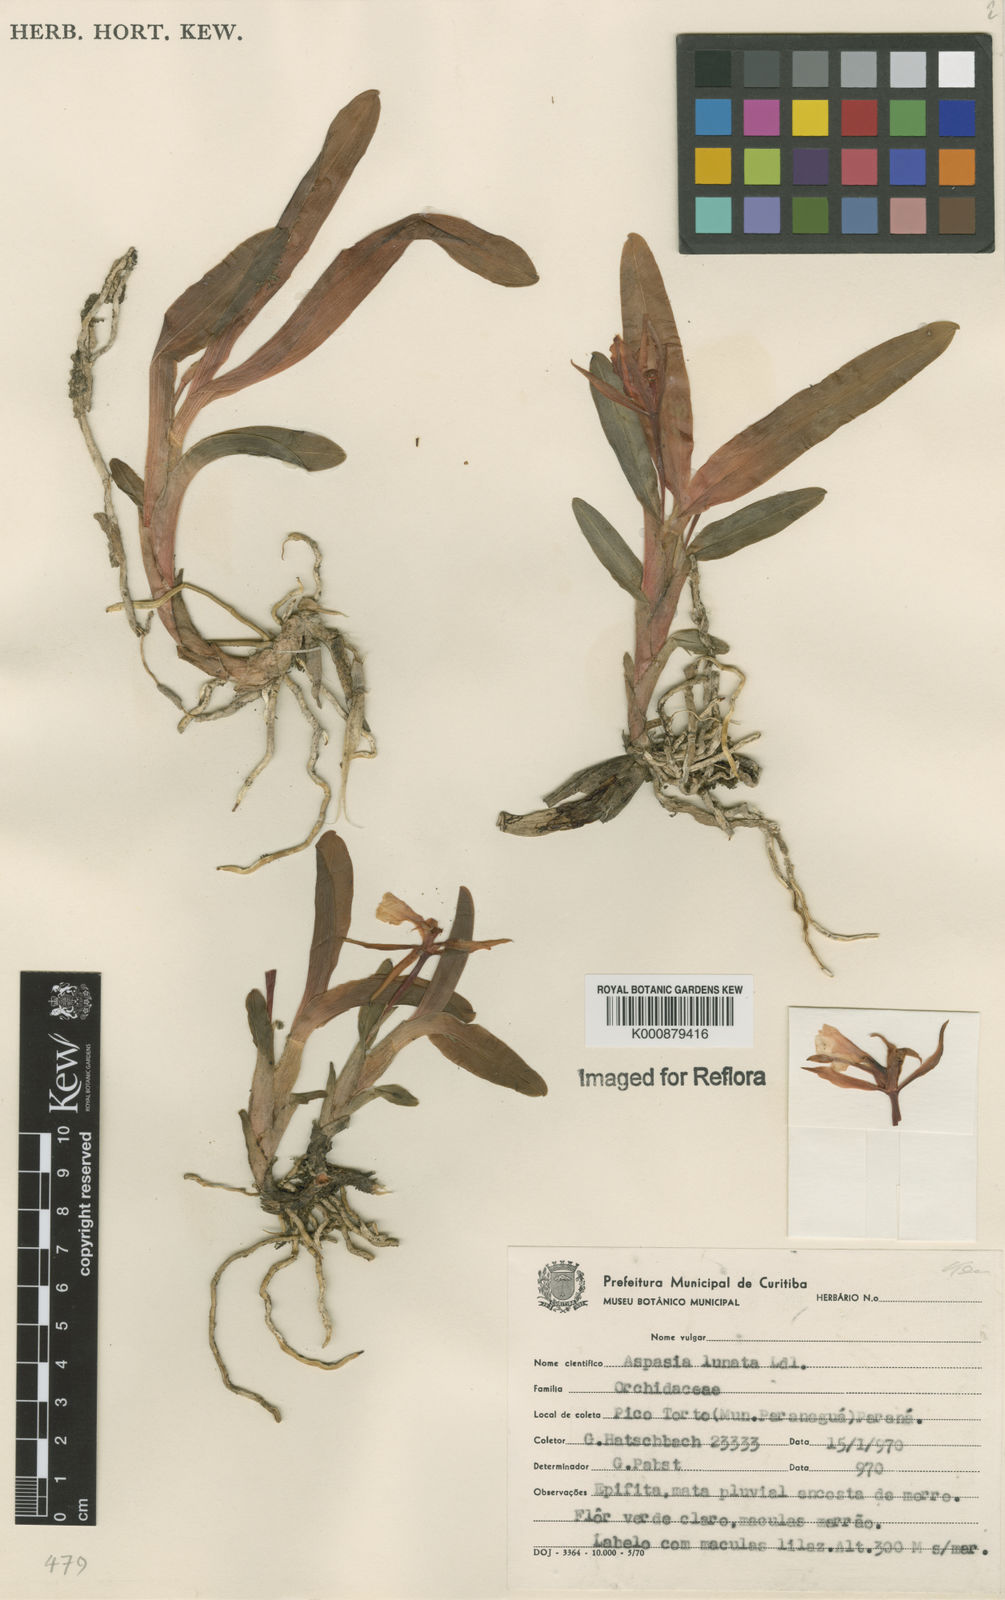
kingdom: Plantae
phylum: Tracheophyta
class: Liliopsida
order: Asparagales
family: Orchidaceae
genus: Aspasia
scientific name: Aspasia lunata
